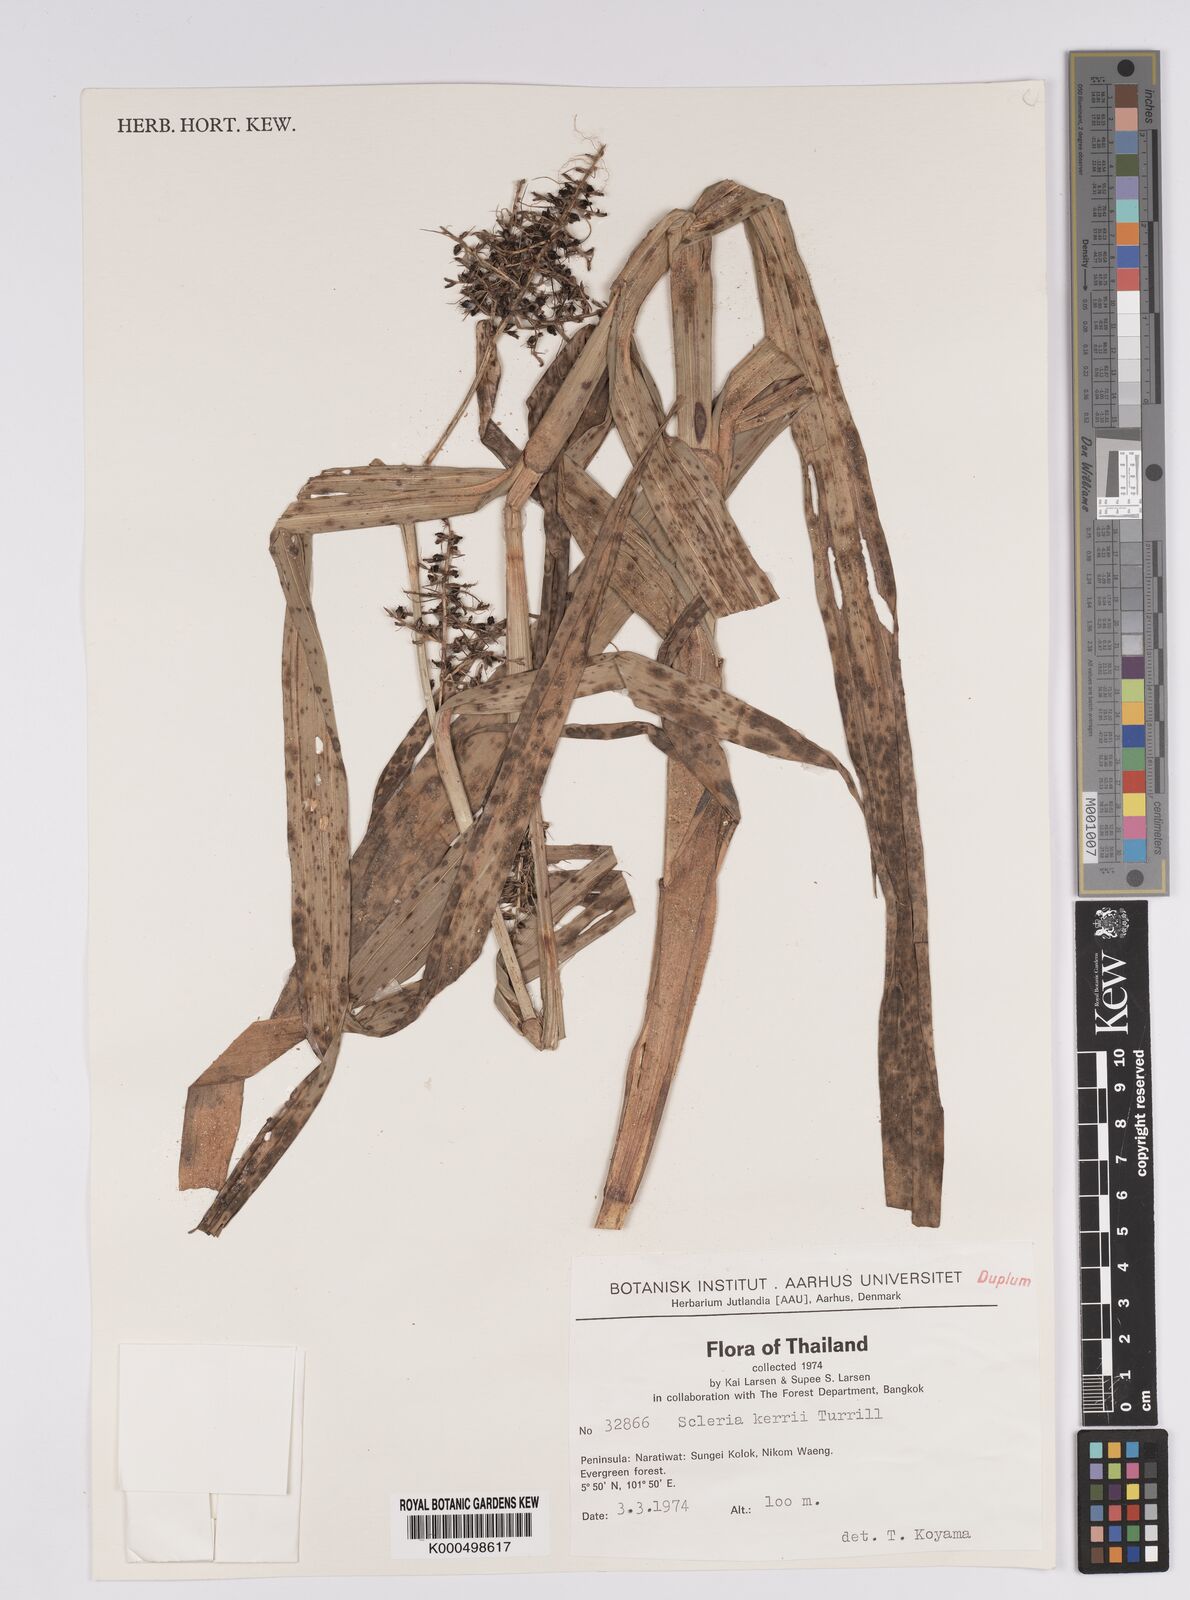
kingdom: Plantae
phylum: Tracheophyta
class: Liliopsida
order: Poales
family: Cyperaceae
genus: Scleria
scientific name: Scleria kerrii
